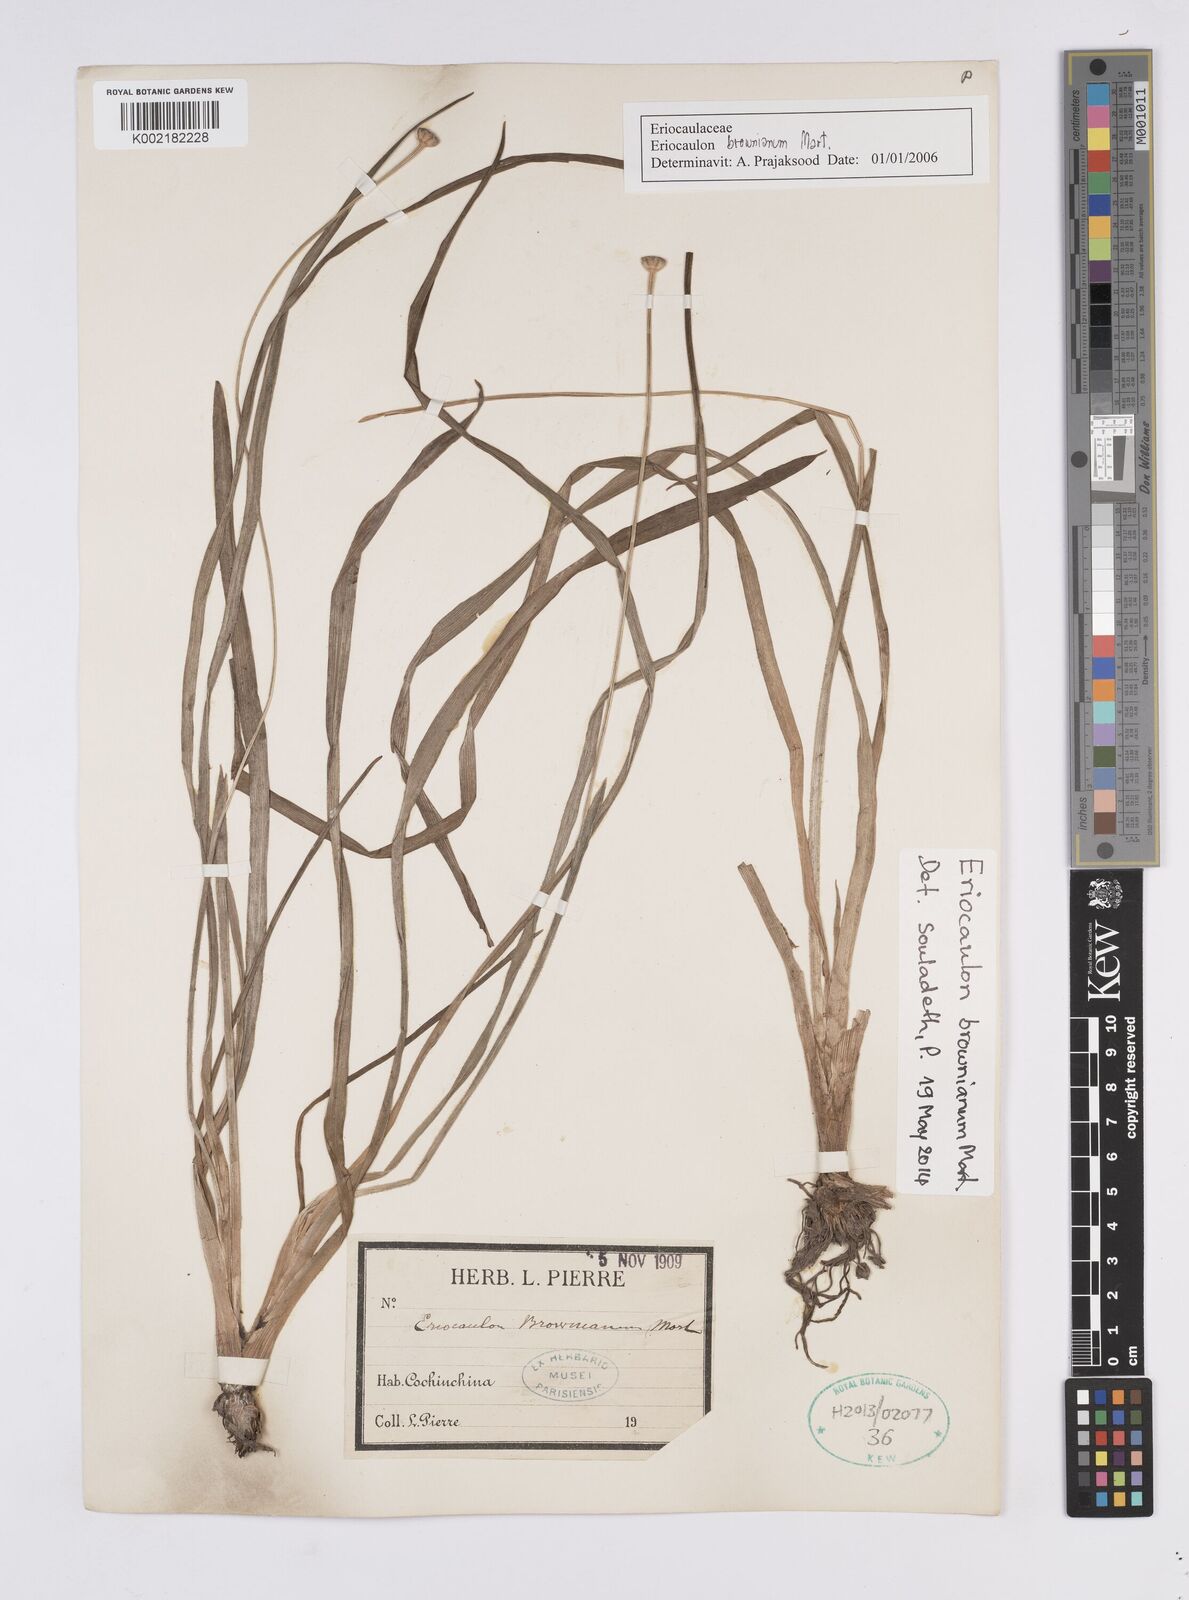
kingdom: Plantae
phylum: Tracheophyta
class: Liliopsida
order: Poales
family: Eriocaulaceae
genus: Eriocaulon
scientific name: Eriocaulon brownianum
